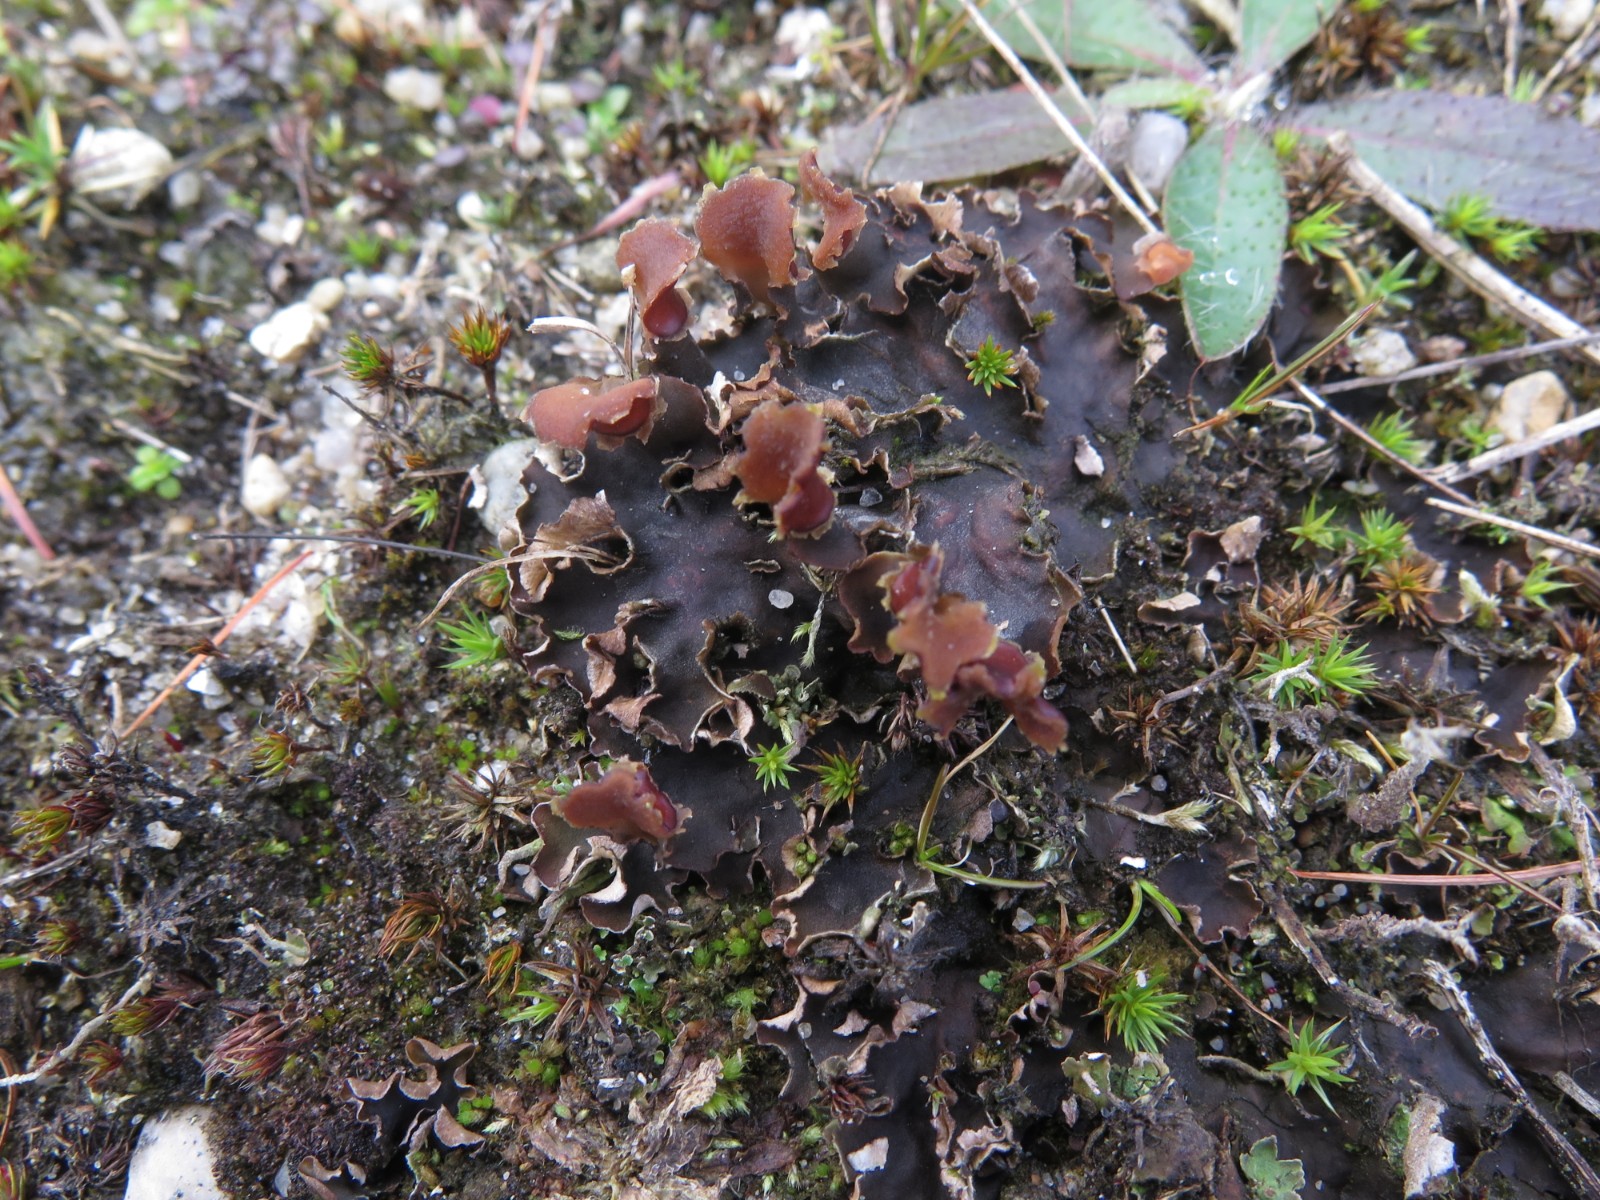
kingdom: Fungi
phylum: Ascomycota
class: Lecanoromycetes
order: Peltigerales
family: Peltigeraceae
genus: Peltigera
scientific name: Peltigera rufescens
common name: brun skjoldlav
